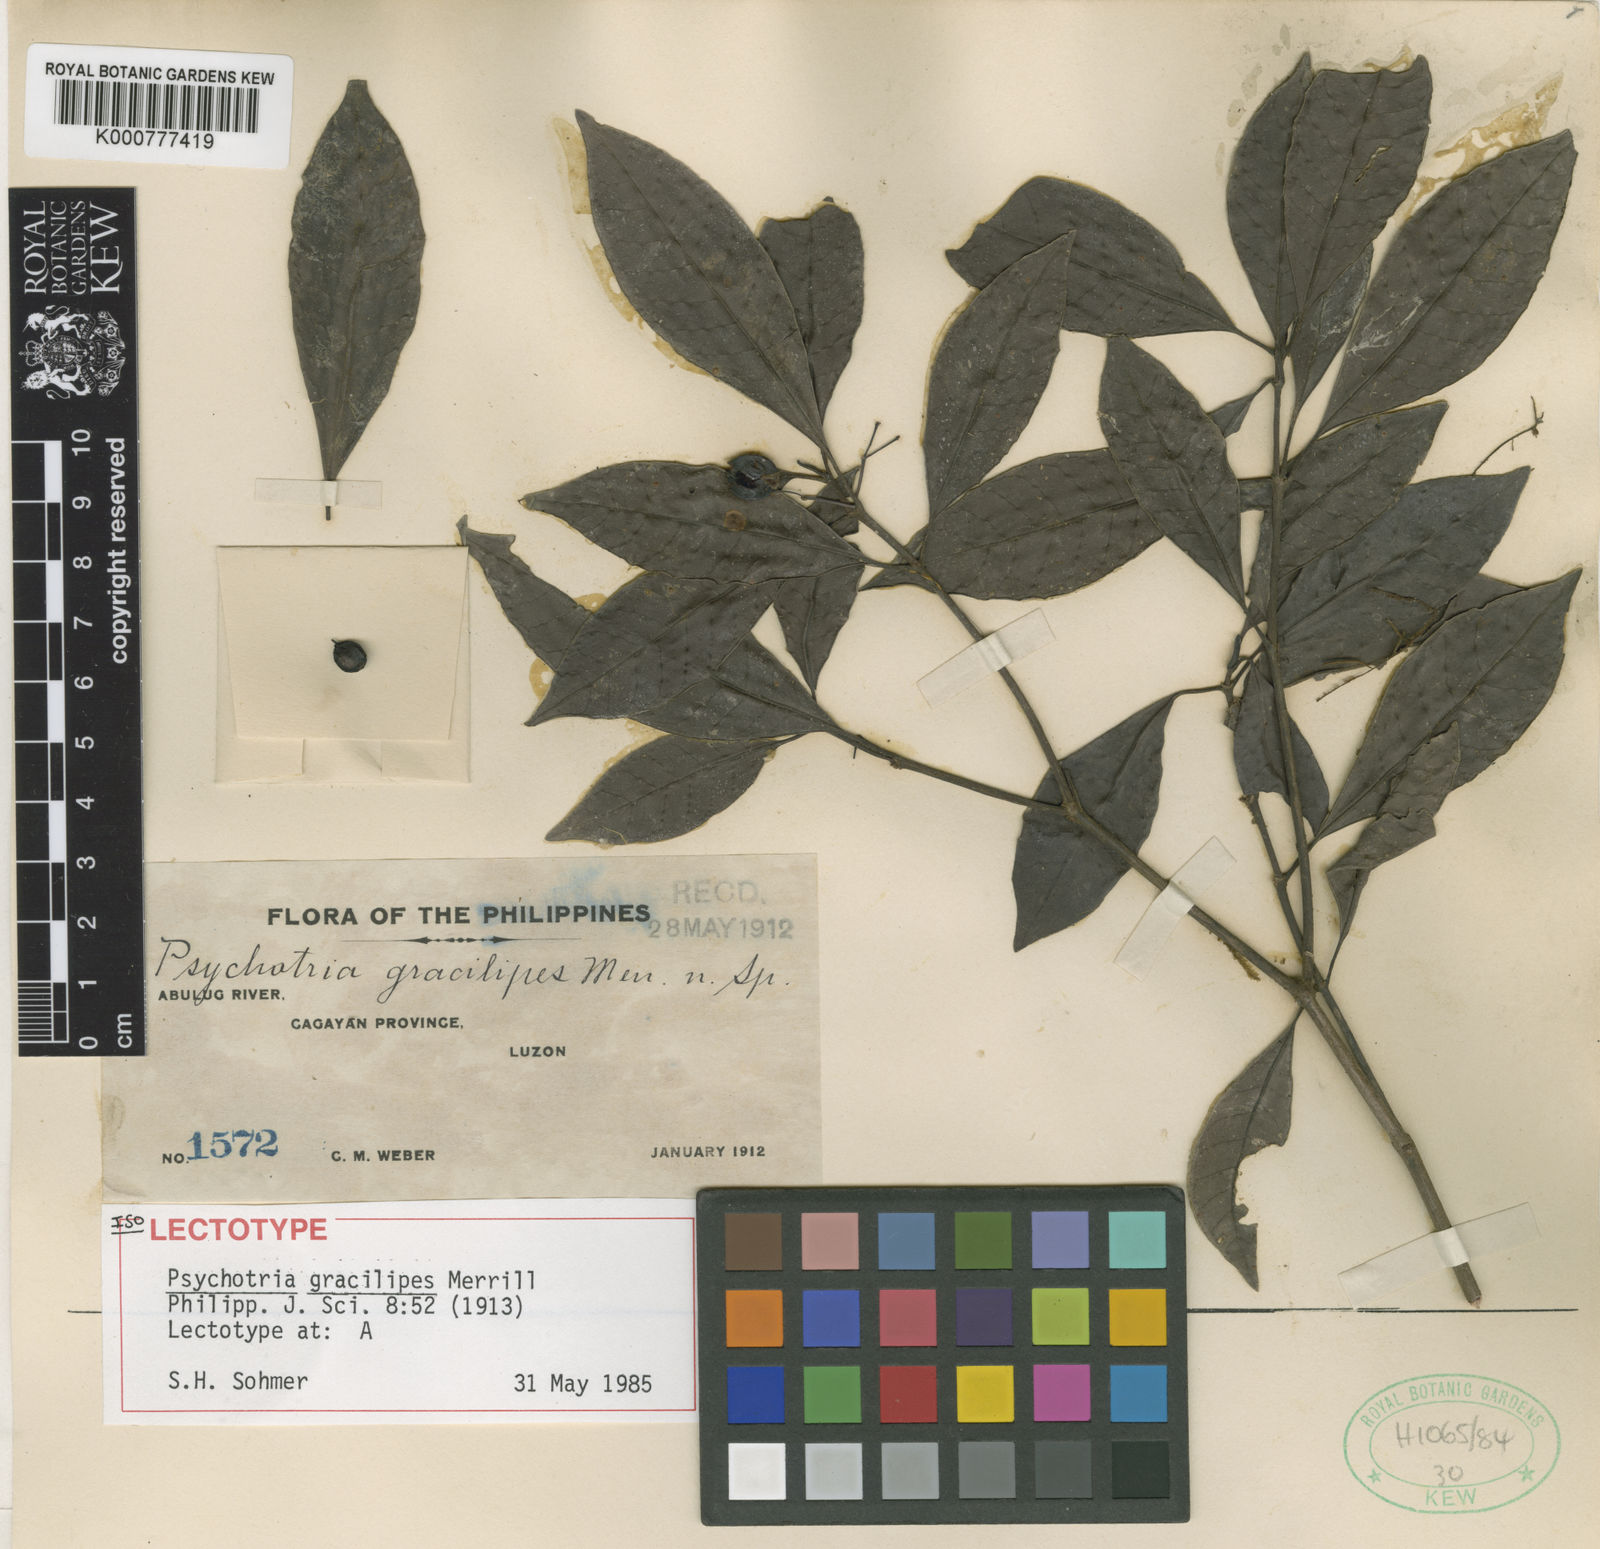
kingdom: Plantae
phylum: Tracheophyta
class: Magnoliopsida
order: Gentianales
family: Rubiaceae
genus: Psychotria
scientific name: Psychotria gracilipes
